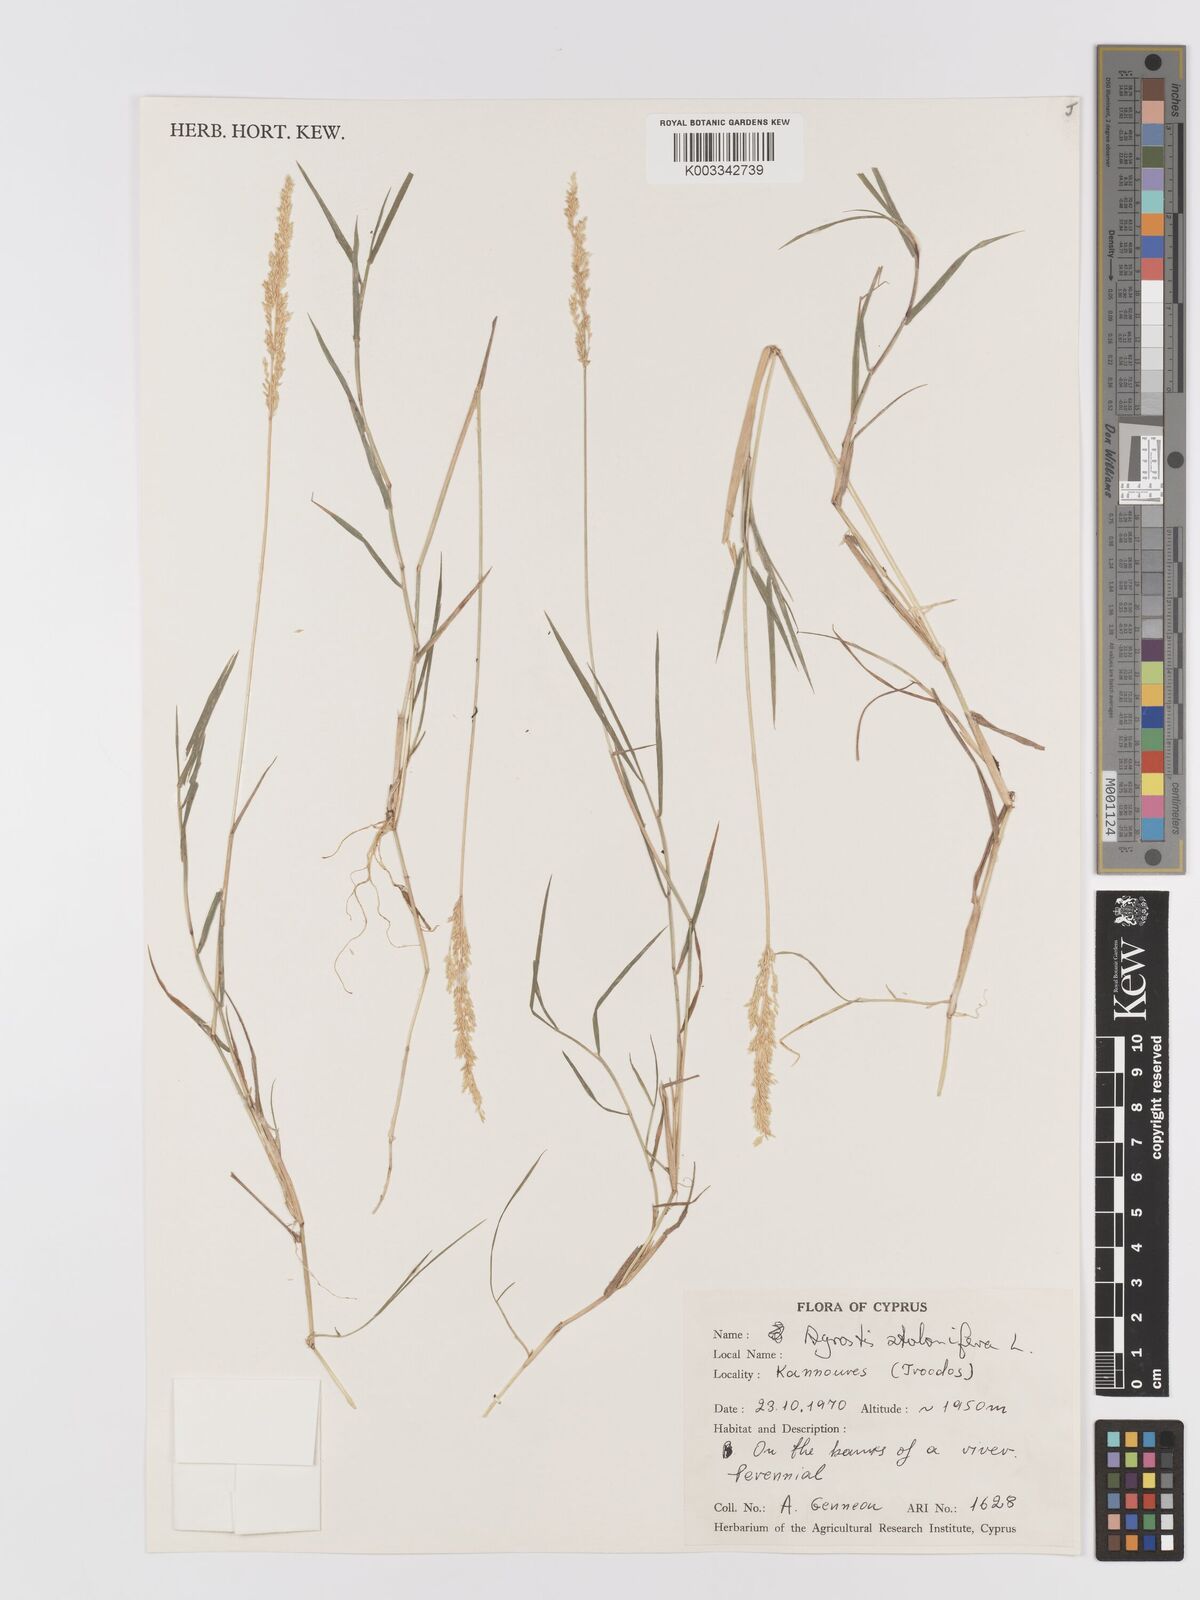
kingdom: Plantae
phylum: Tracheophyta
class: Liliopsida
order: Poales
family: Poaceae
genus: Agrostis
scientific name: Agrostis stolonifera
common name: Creeping bentgrass
